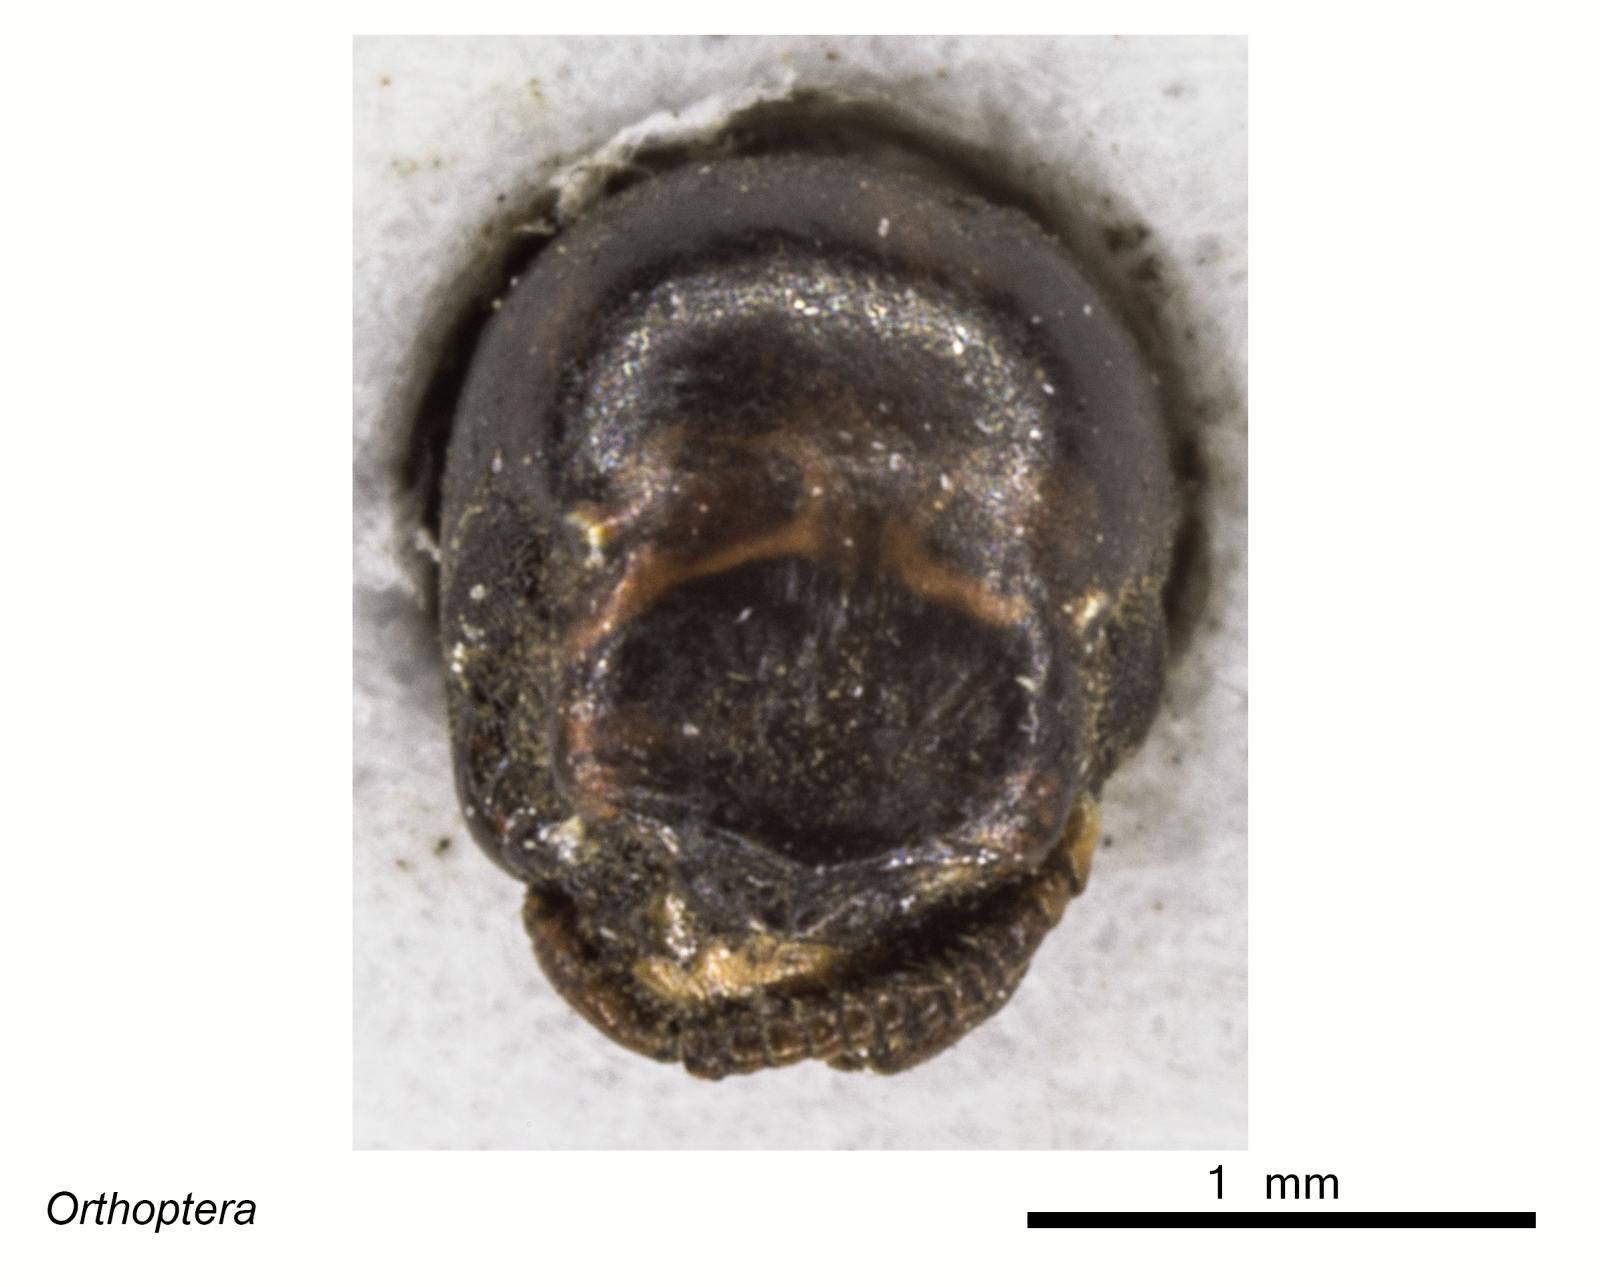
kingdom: Animalia
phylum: Arthropoda
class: Insecta
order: Orthoptera
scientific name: Orthoptera
